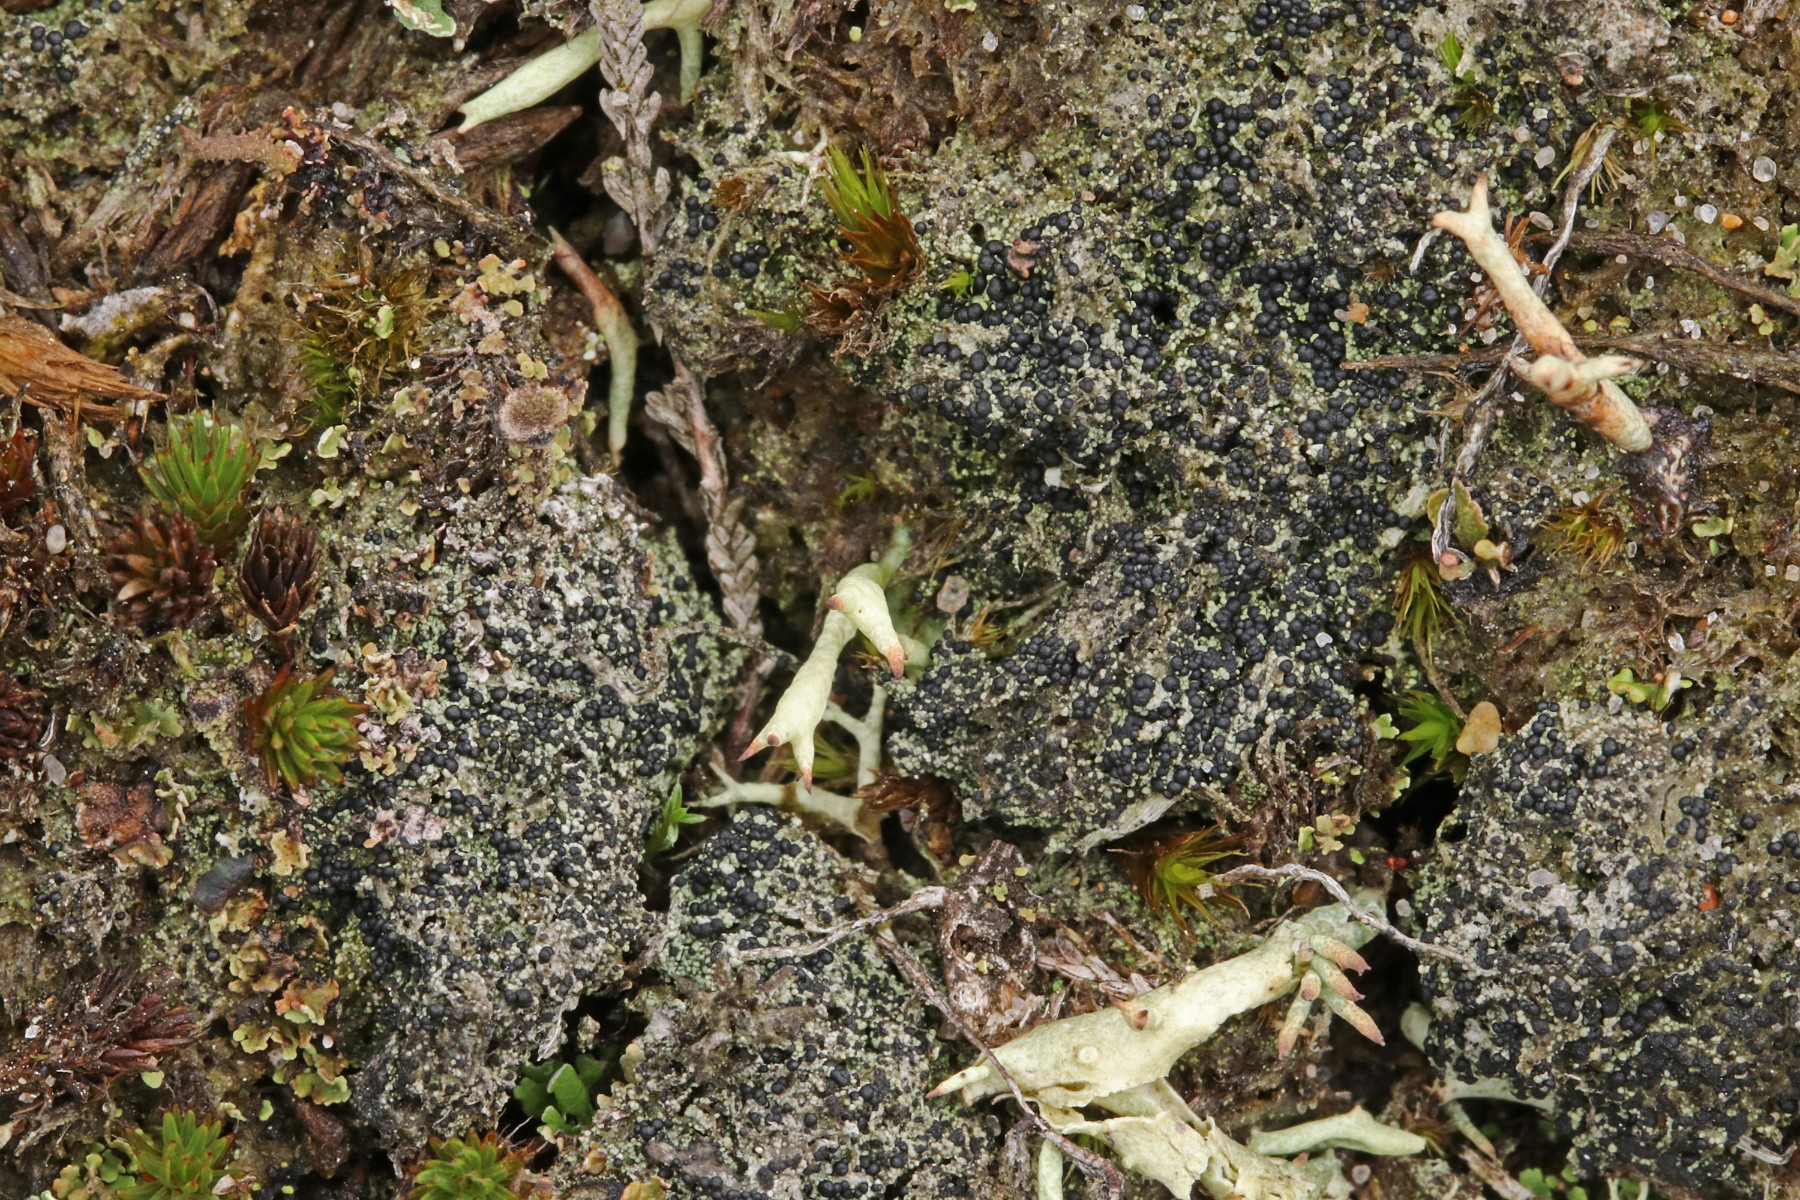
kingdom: Fungi
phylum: Ascomycota
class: Lecanoromycetes
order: Lecanorales
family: Byssolomataceae
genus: Micarea
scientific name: Micarea lignaria
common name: tørve-knaplav
